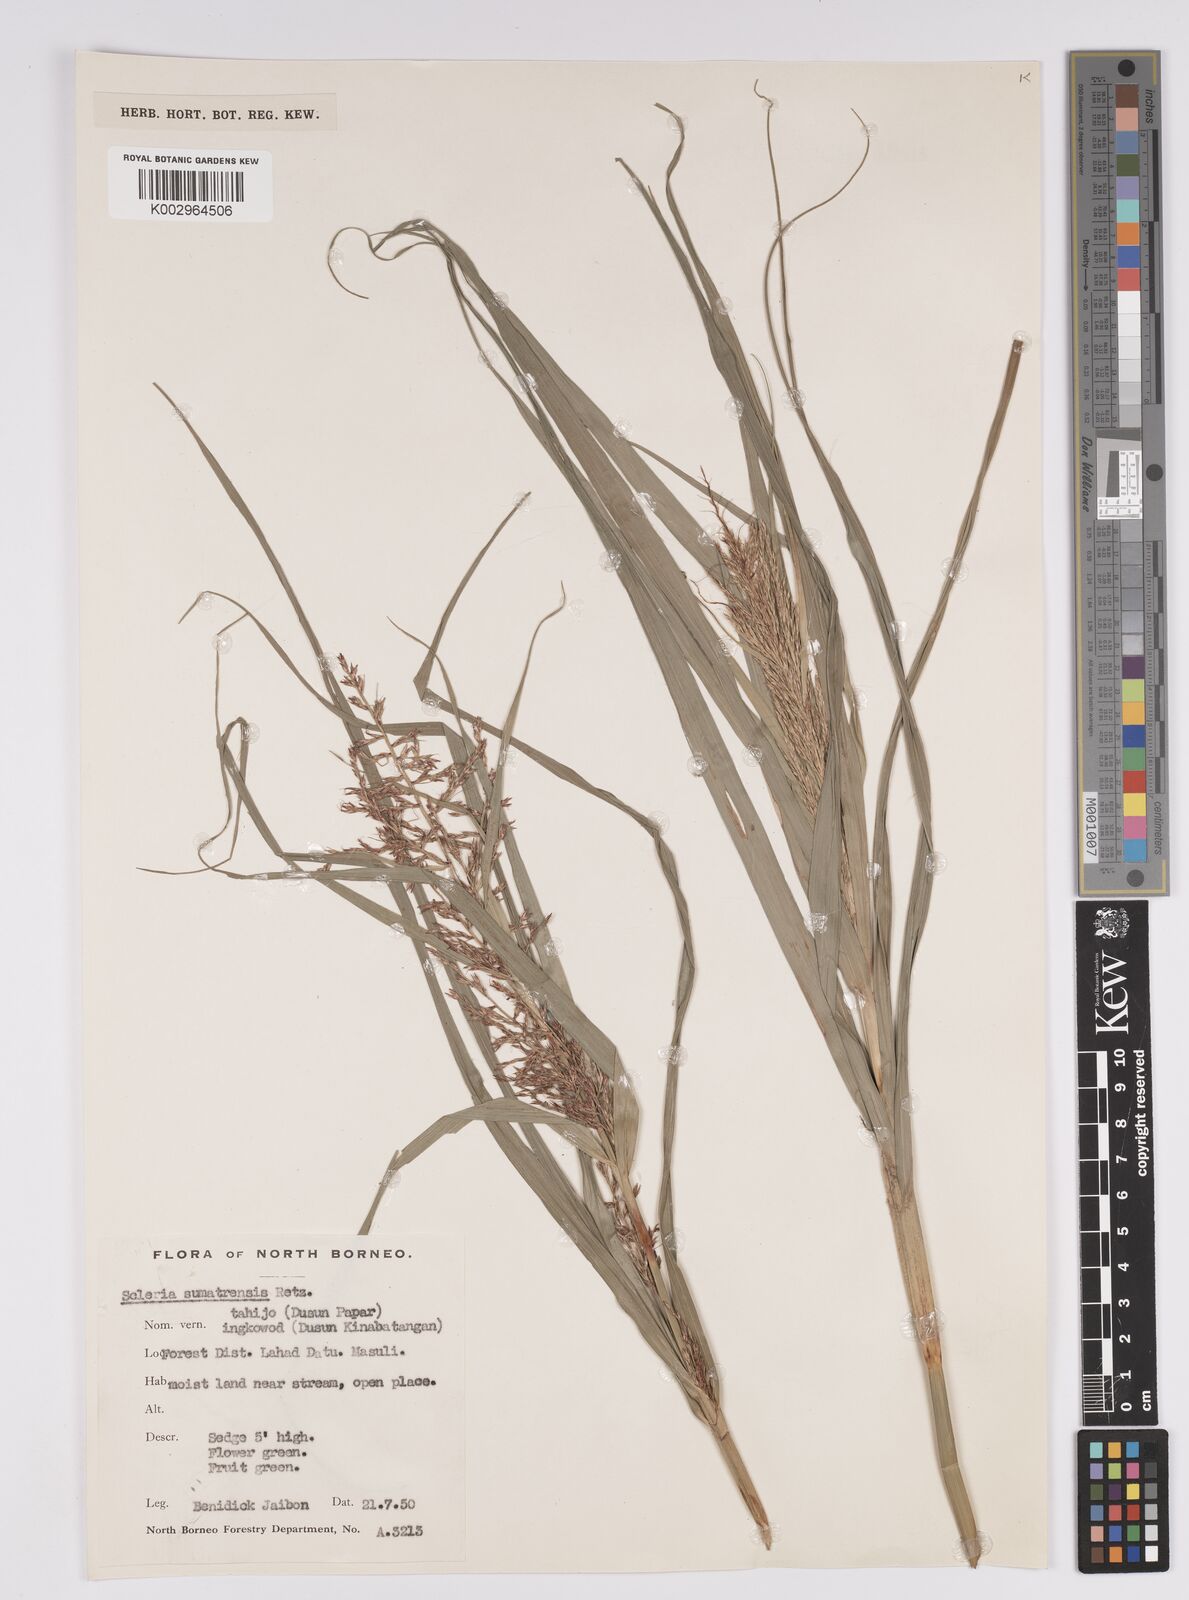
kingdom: Plantae
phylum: Tracheophyta
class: Liliopsida
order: Poales
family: Cyperaceae
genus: Scleria
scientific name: Scleria sumatrensis
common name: Sumatran scleria
